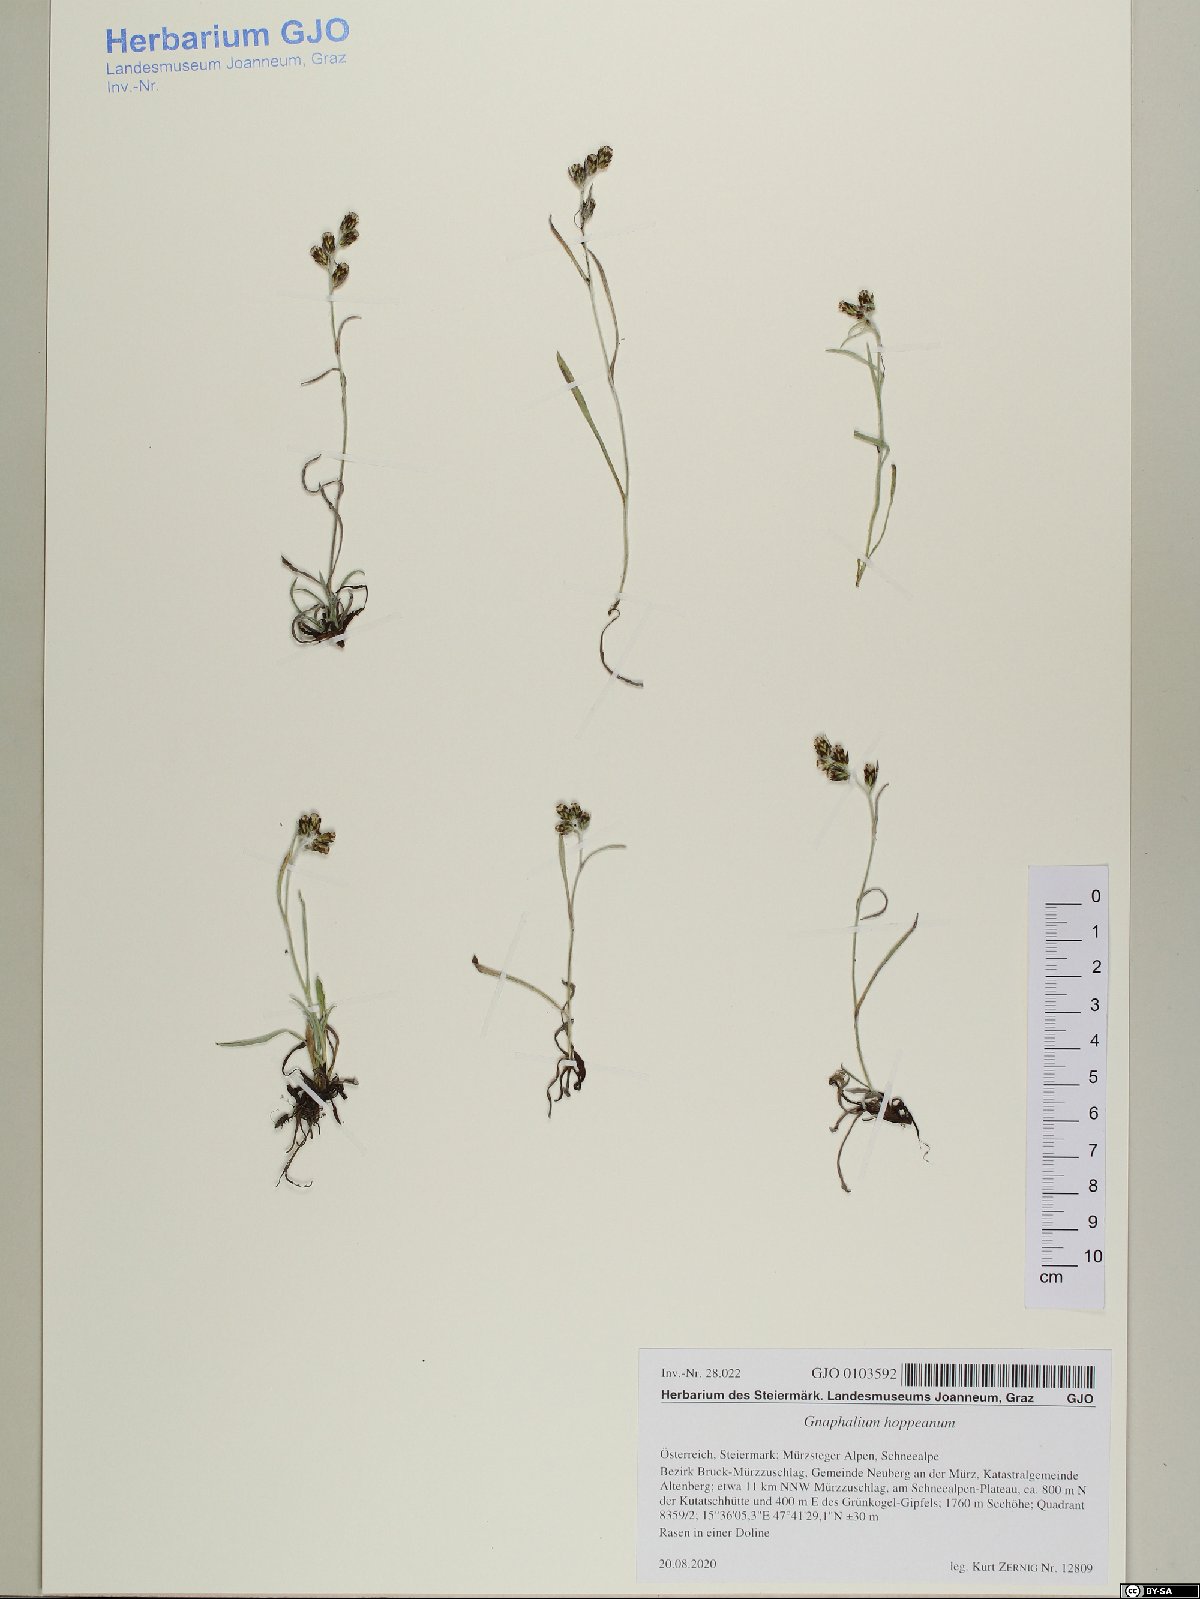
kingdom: Plantae
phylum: Tracheophyta
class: Magnoliopsida
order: Asterales
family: Asteraceae
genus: Omalotheca
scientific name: Omalotheca hoppeana
